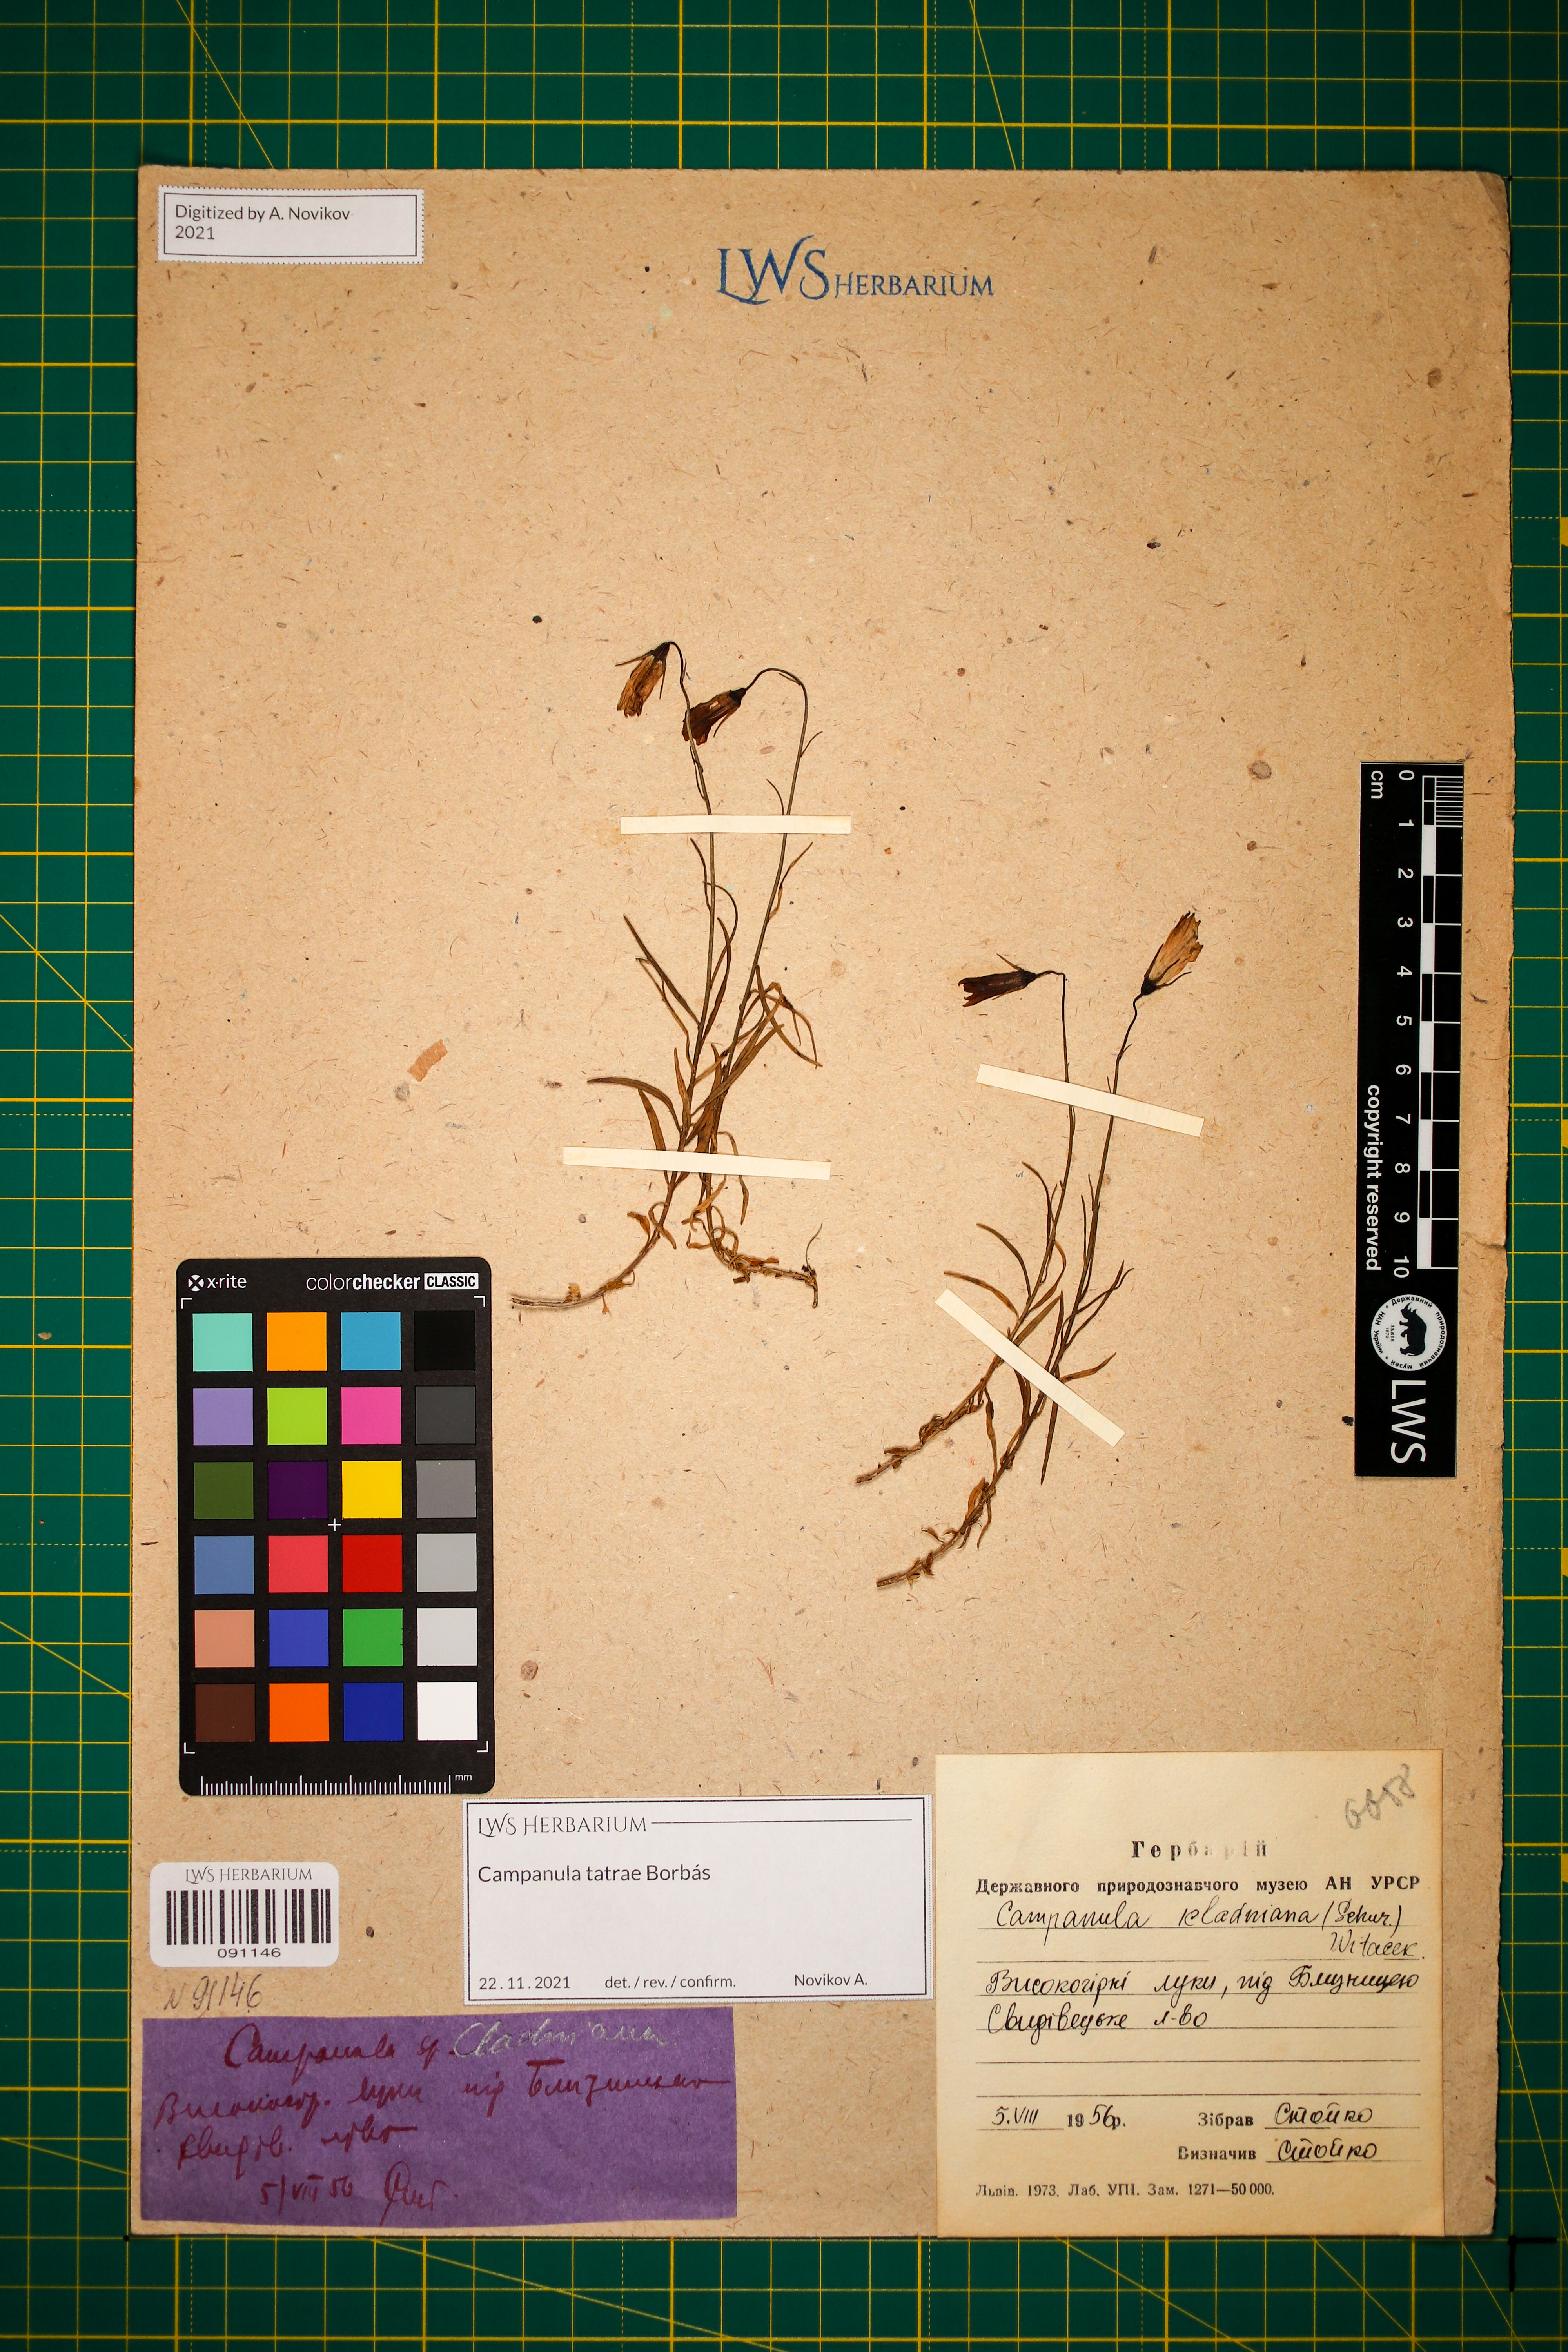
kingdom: Plantae
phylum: Tracheophyta
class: Magnoliopsida
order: Asterales
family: Campanulaceae
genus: Campanula
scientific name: Campanula kladniana
